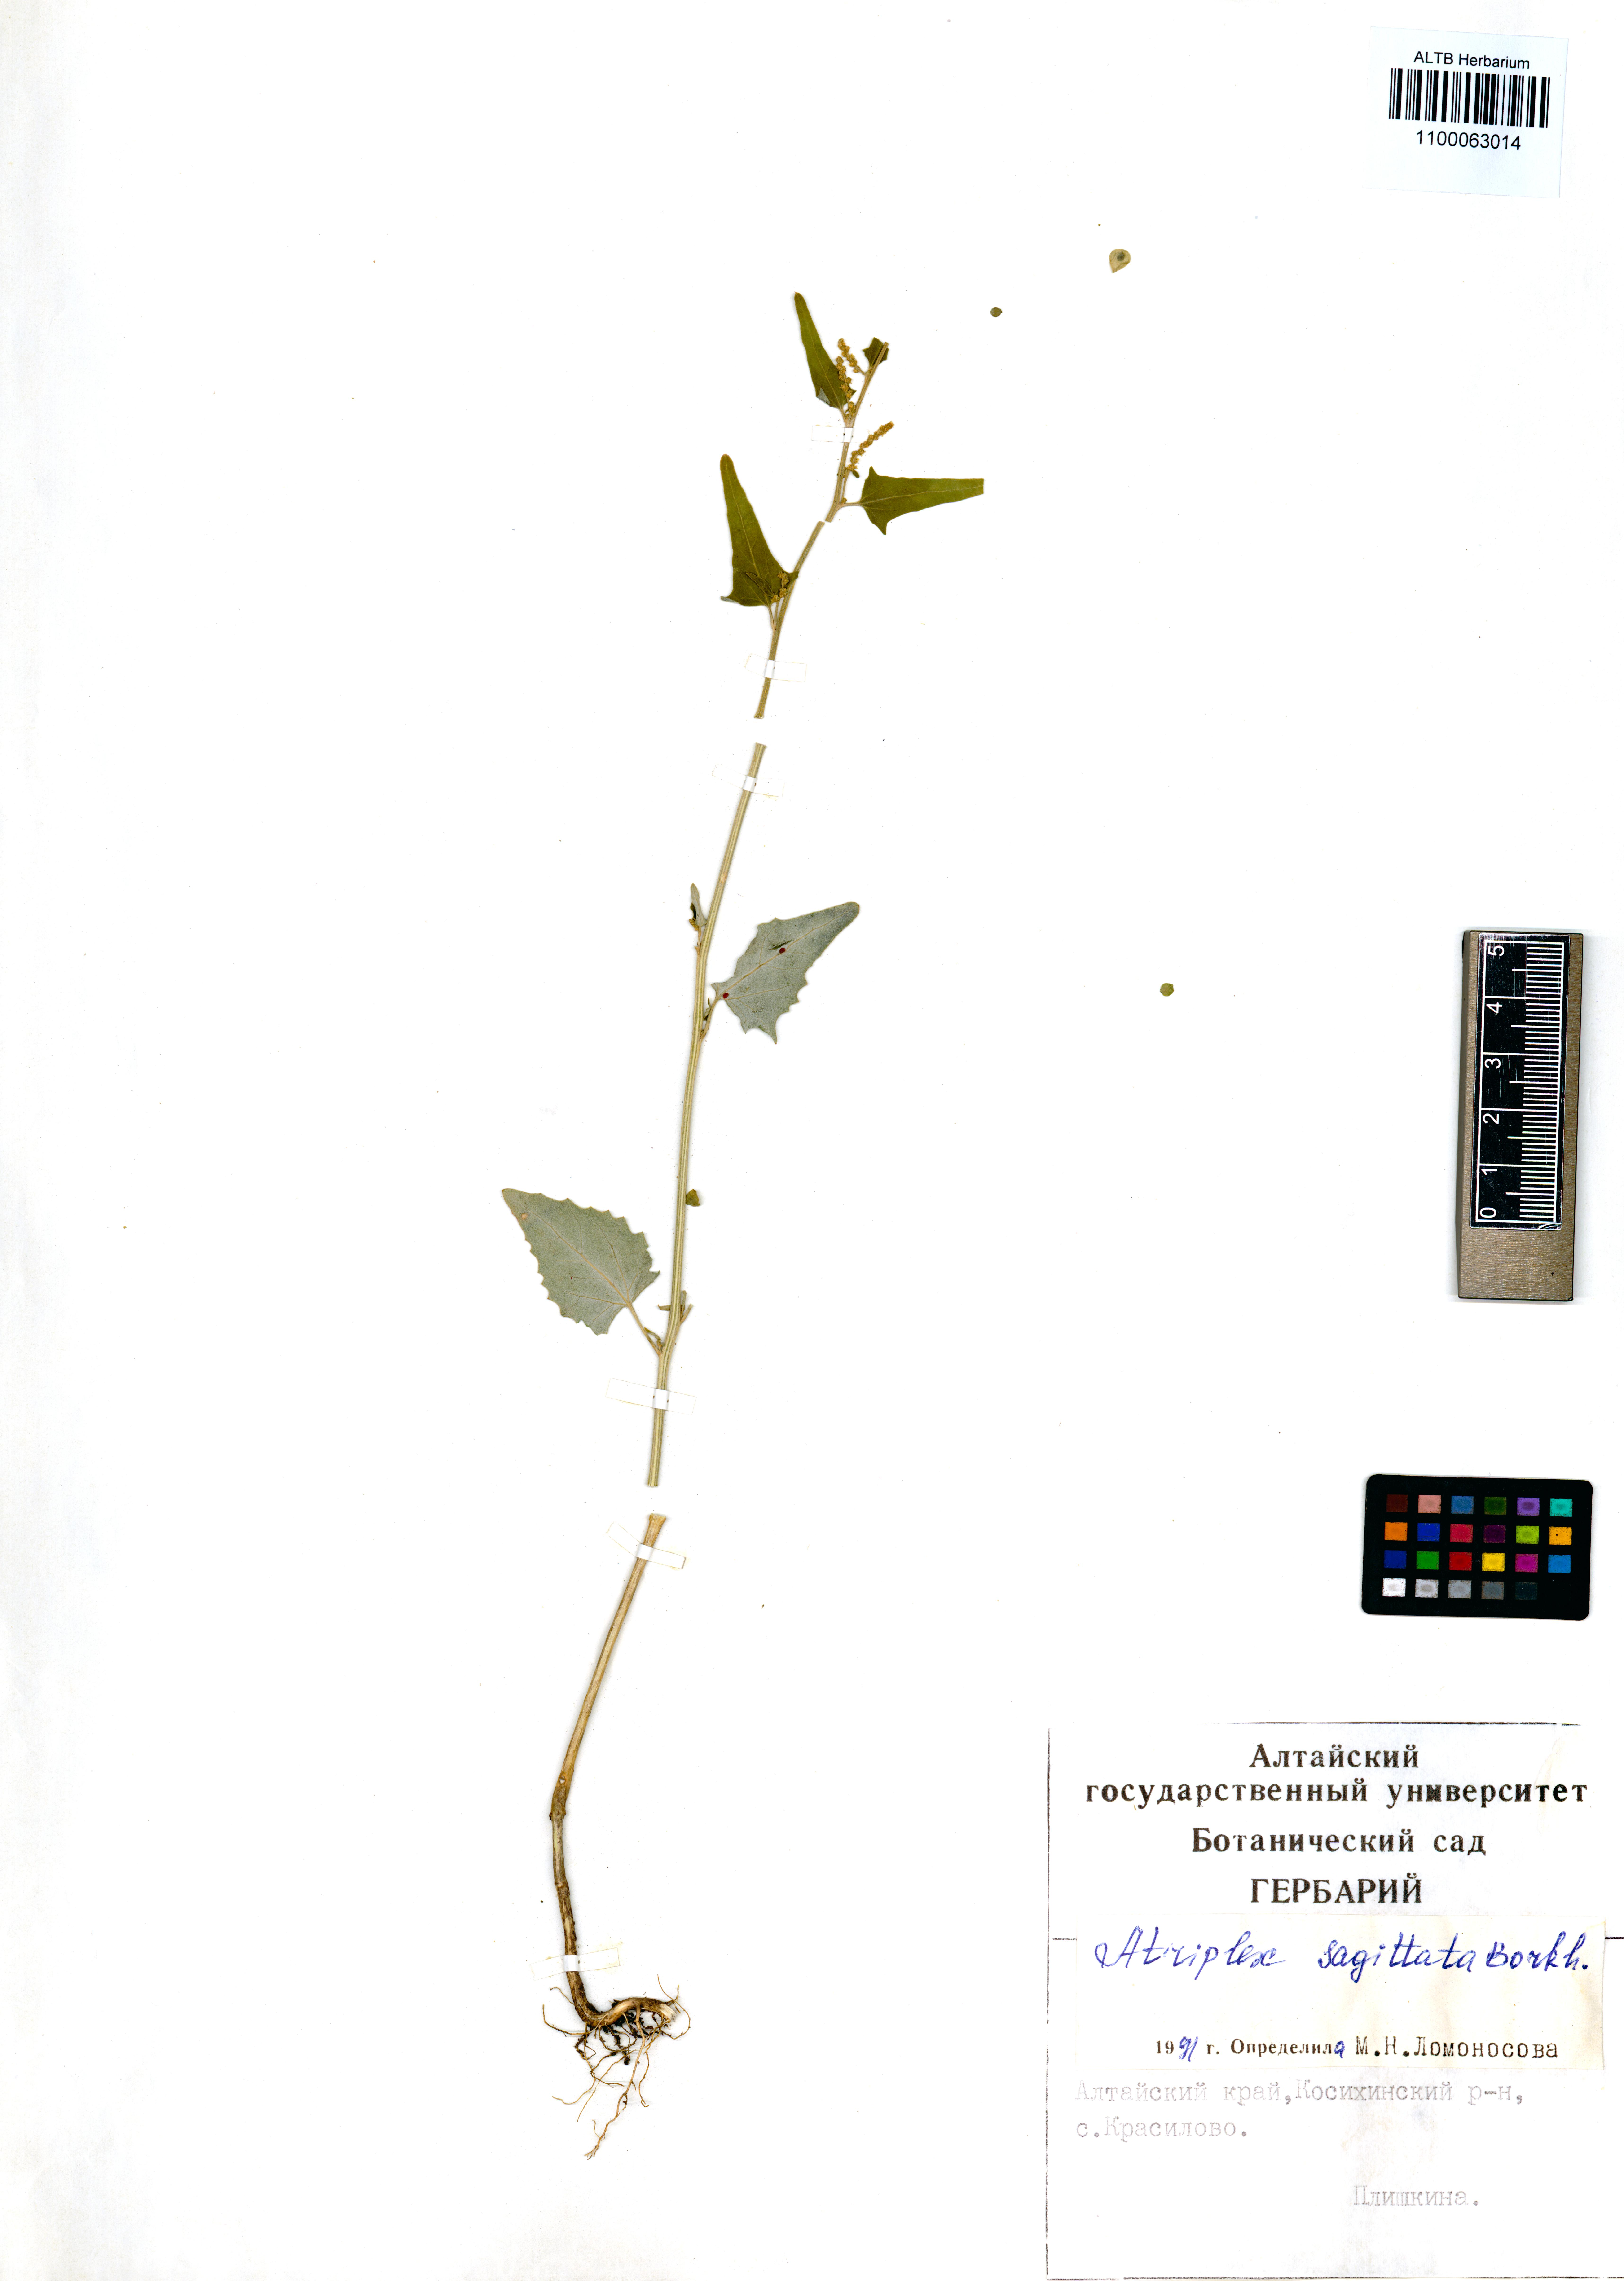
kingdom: Plantae
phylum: Tracheophyta
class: Magnoliopsida
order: Caryophyllales
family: Amaranthaceae
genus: Atriplex
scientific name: Atriplex sagittata
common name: Purple orache
